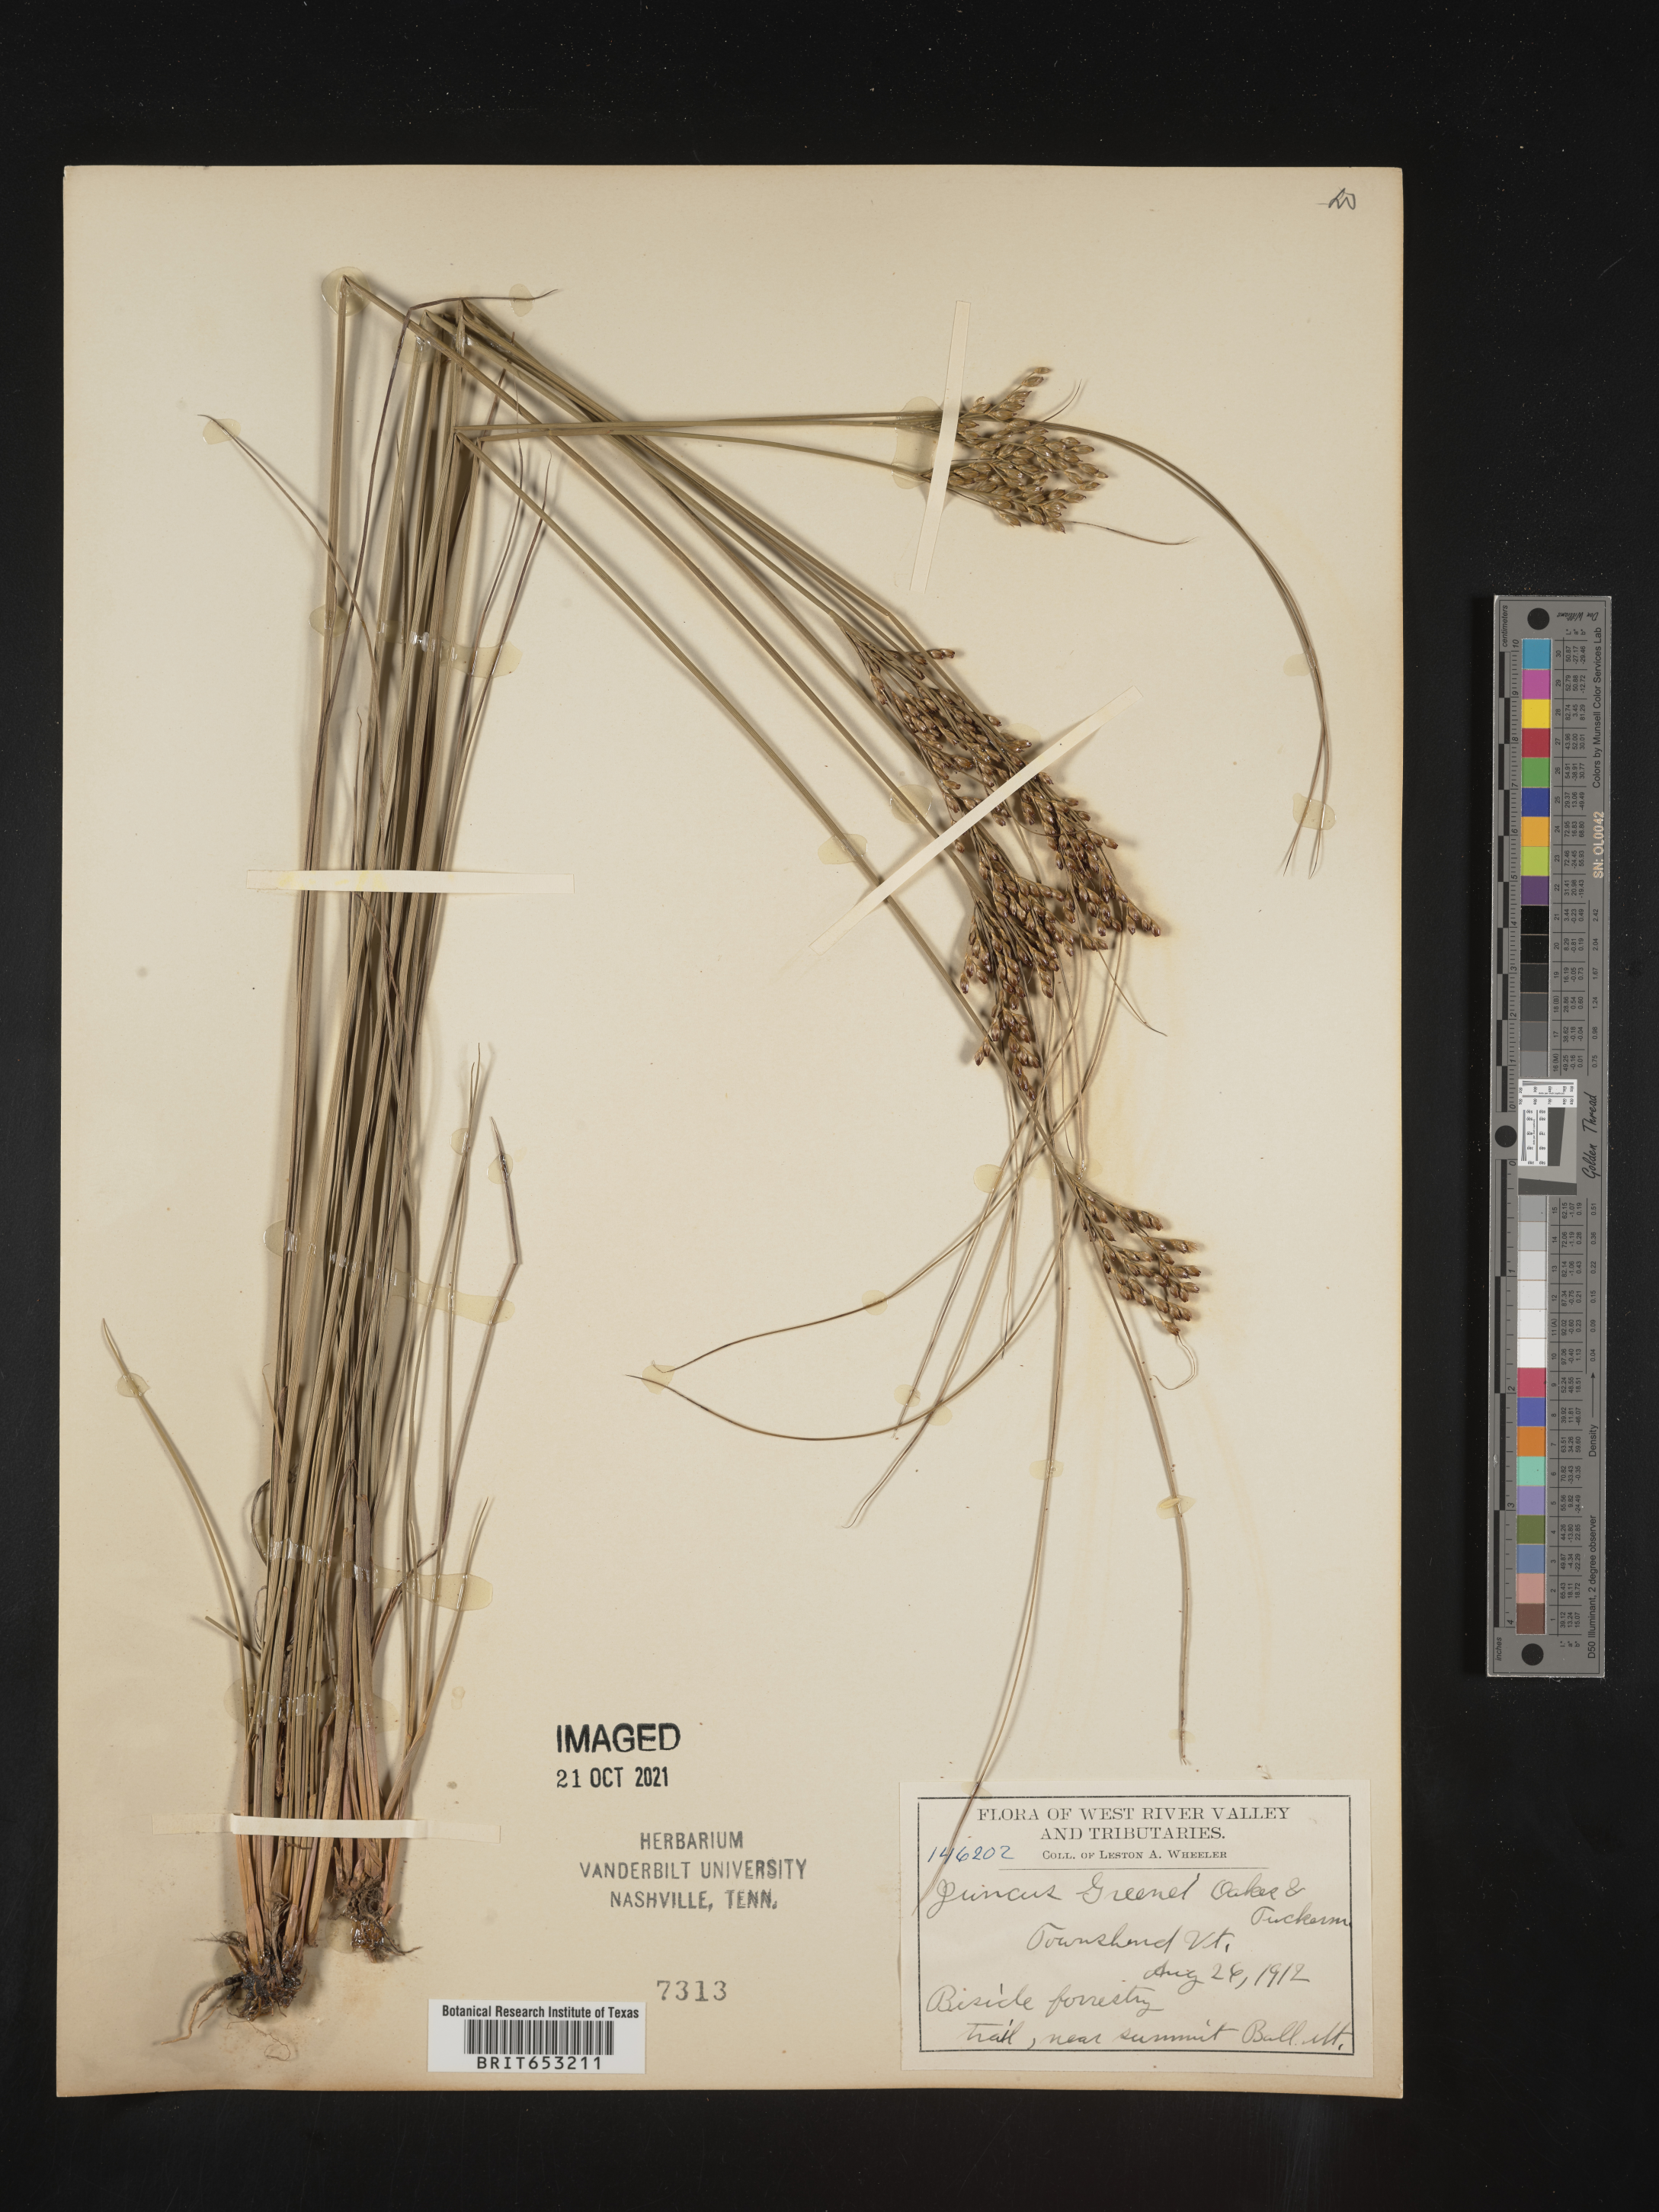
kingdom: Plantae
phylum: Tracheophyta
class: Liliopsida
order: Poales
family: Juncaceae
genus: Juncus
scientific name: Juncus greenei
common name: Greene's rush
